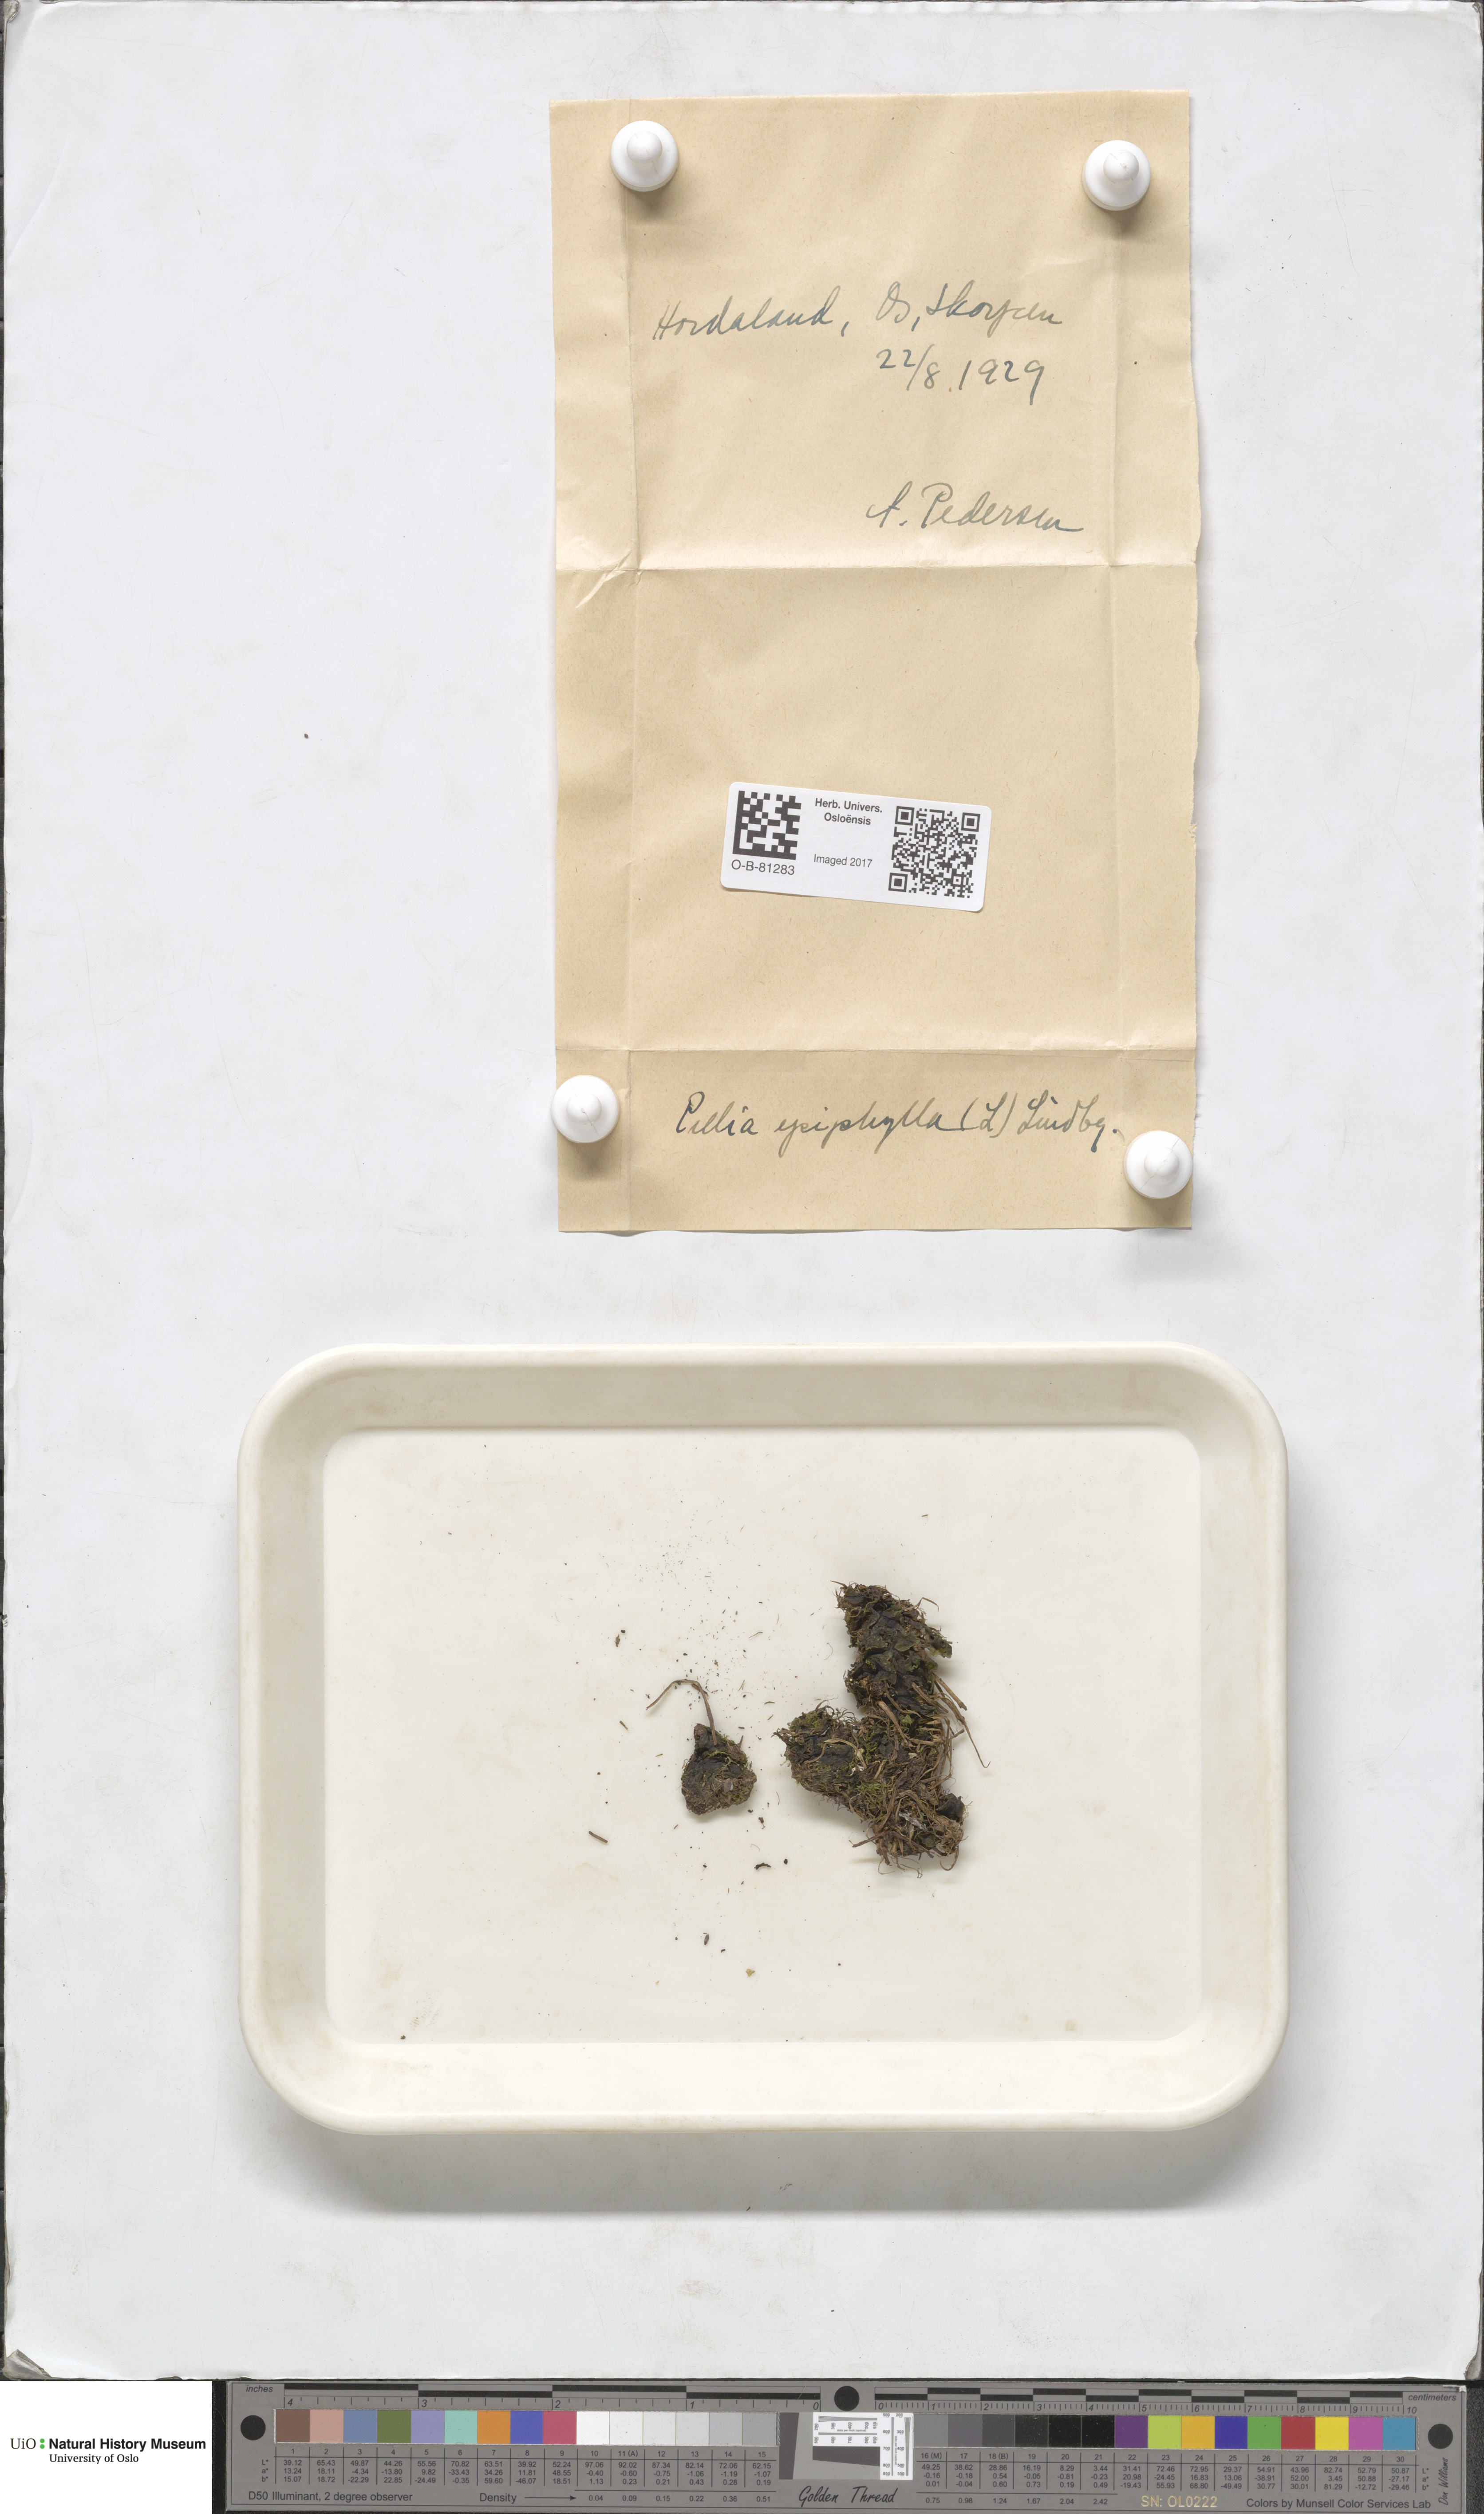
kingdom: Plantae
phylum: Marchantiophyta
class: Jungermanniopsida
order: Pelliales
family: Pelliaceae
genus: Pellia
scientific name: Pellia epiphylla
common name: Common pellia
